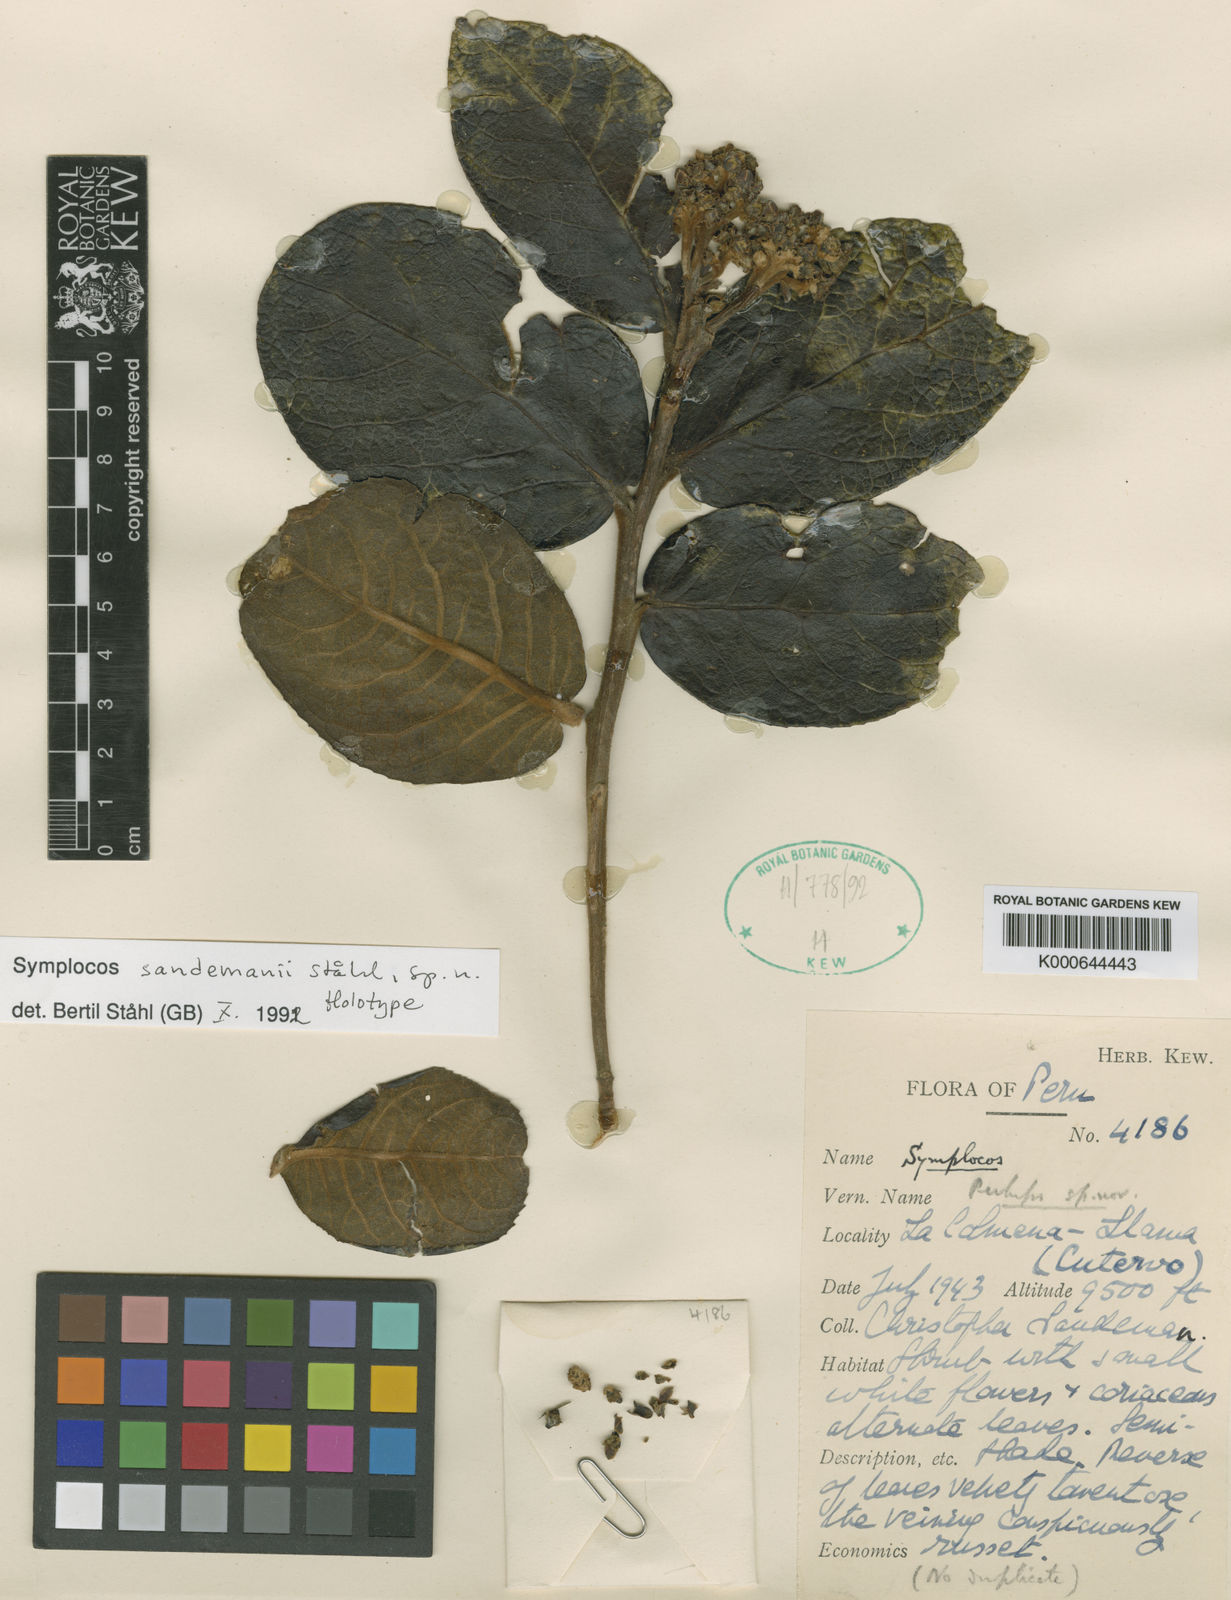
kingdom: Plantae
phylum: Tracheophyta
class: Magnoliopsida
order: Ericales
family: Symplocaceae
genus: Symplocos
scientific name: Symplocos
